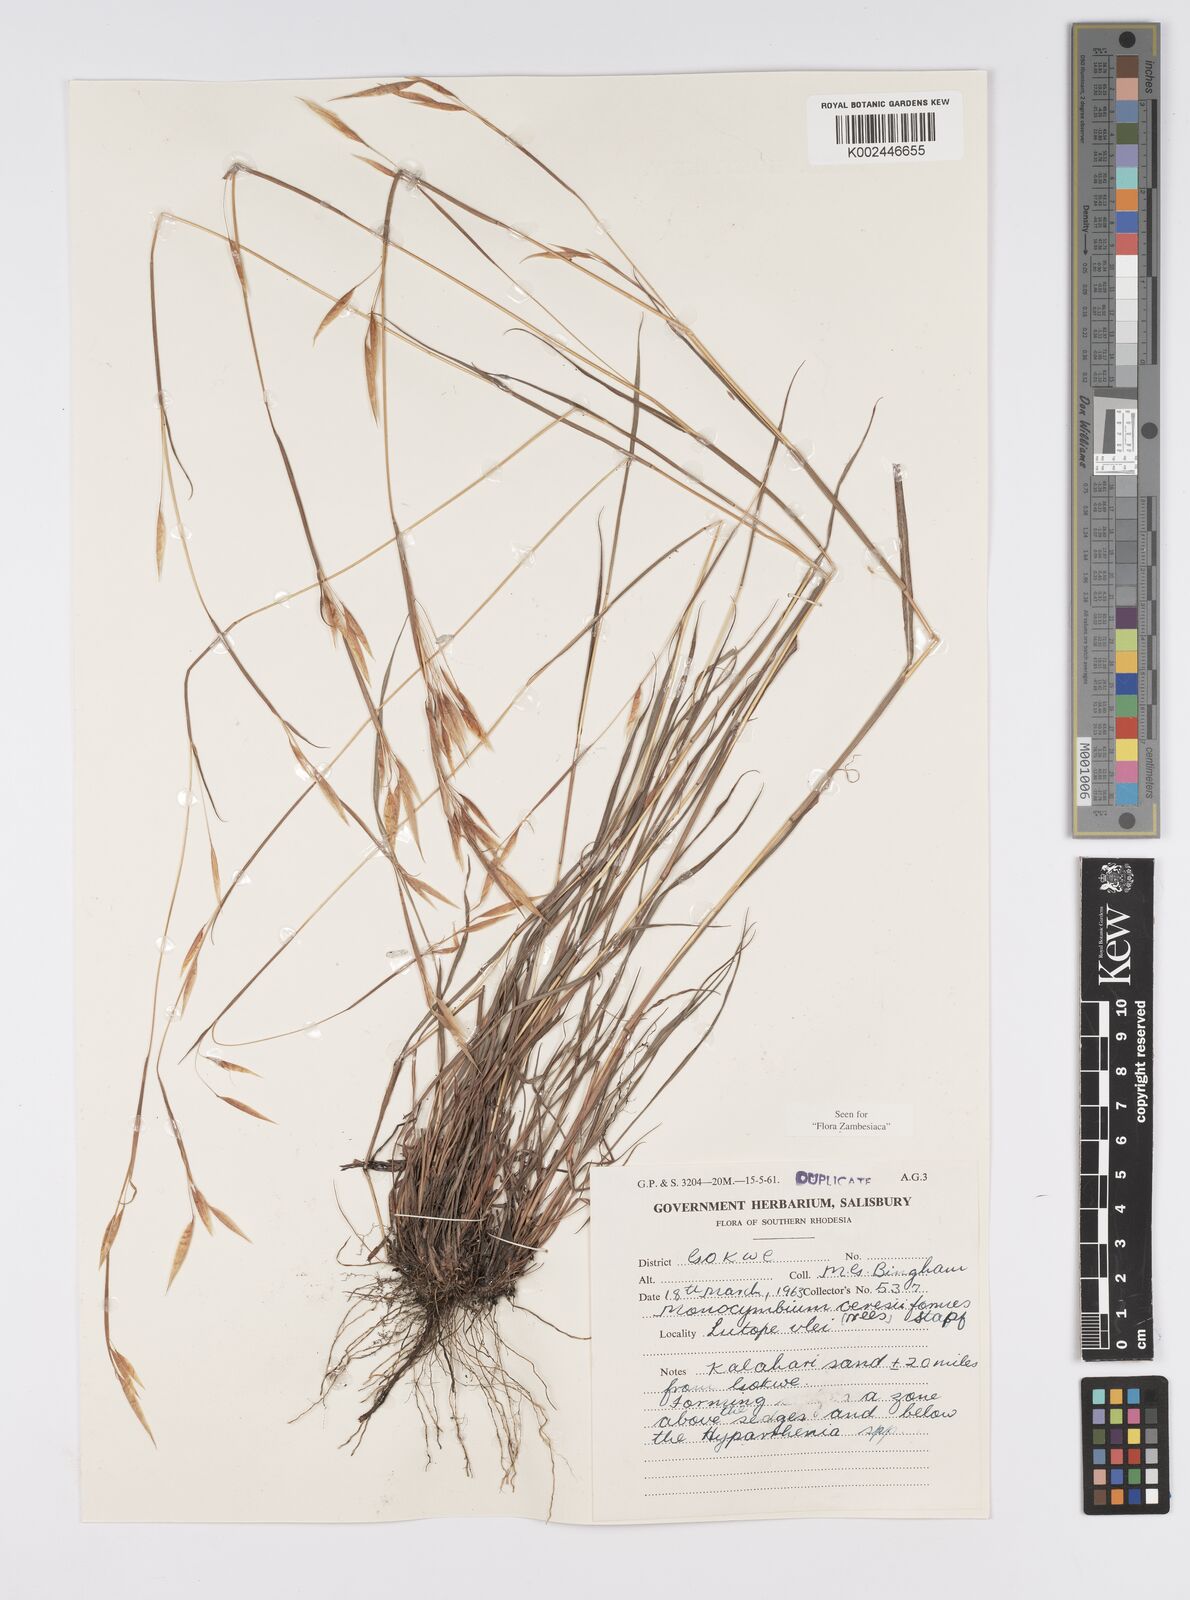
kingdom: Plantae
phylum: Tracheophyta
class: Liliopsida
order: Poales
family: Poaceae
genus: Monocymbium
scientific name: Monocymbium ceresiiforme
